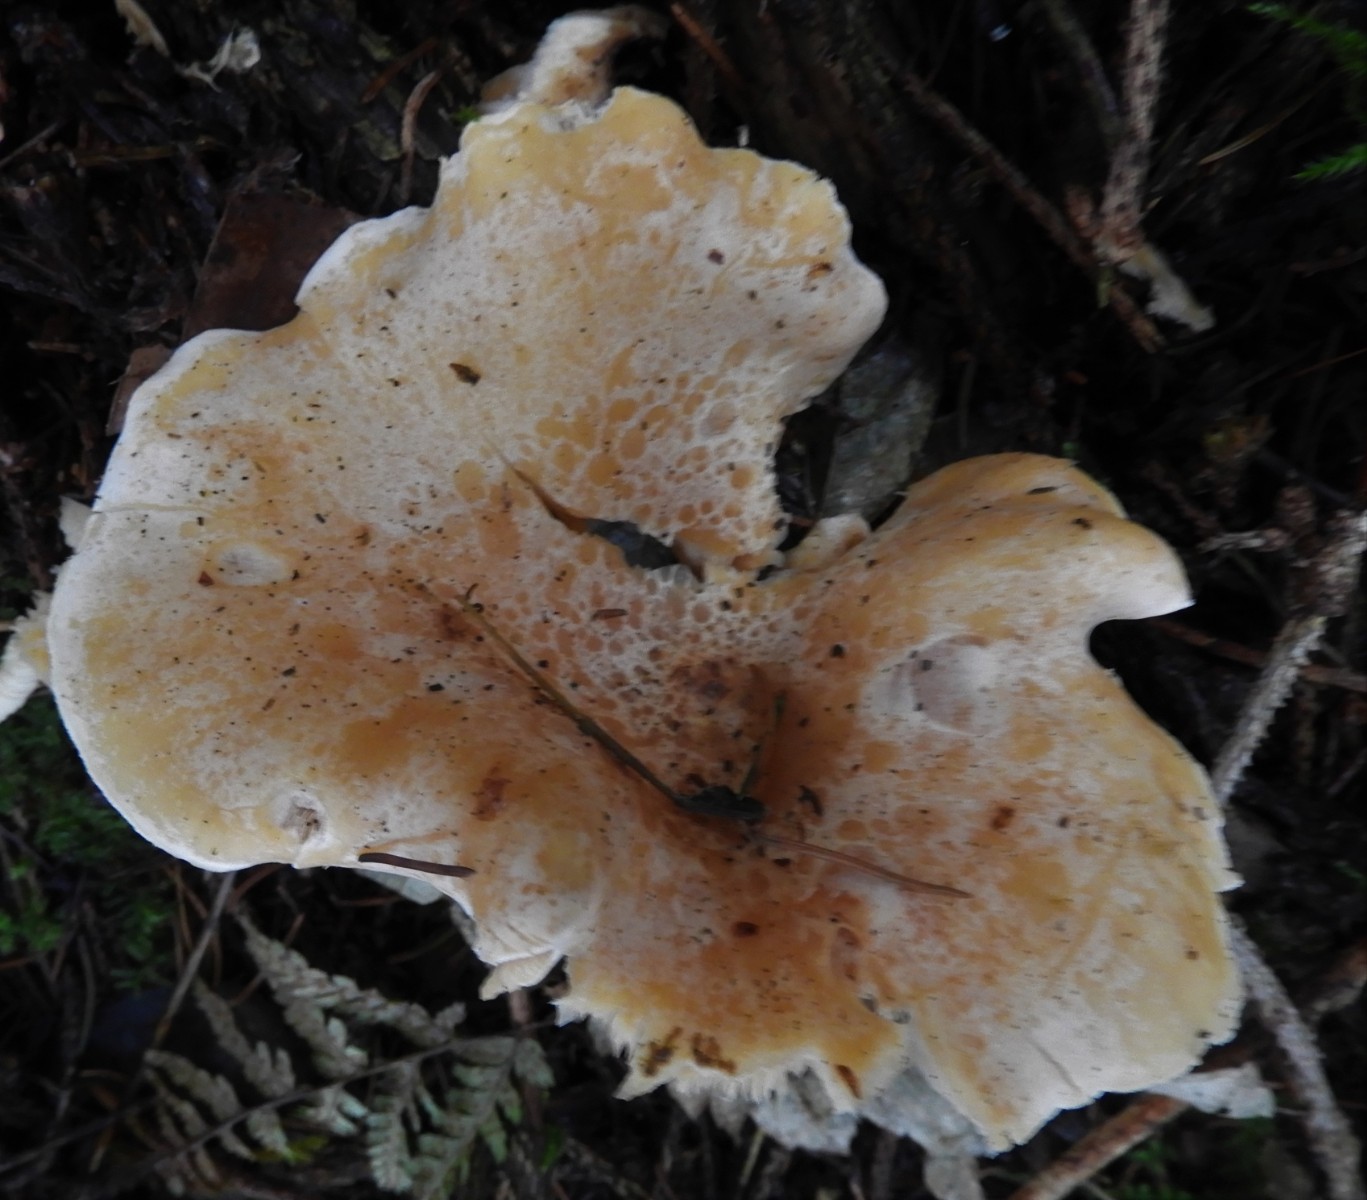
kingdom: Fungi
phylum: Basidiomycota
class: Agaricomycetes
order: Agaricales
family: Tricholomataceae
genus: Paralepista
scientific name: Paralepista gilva
